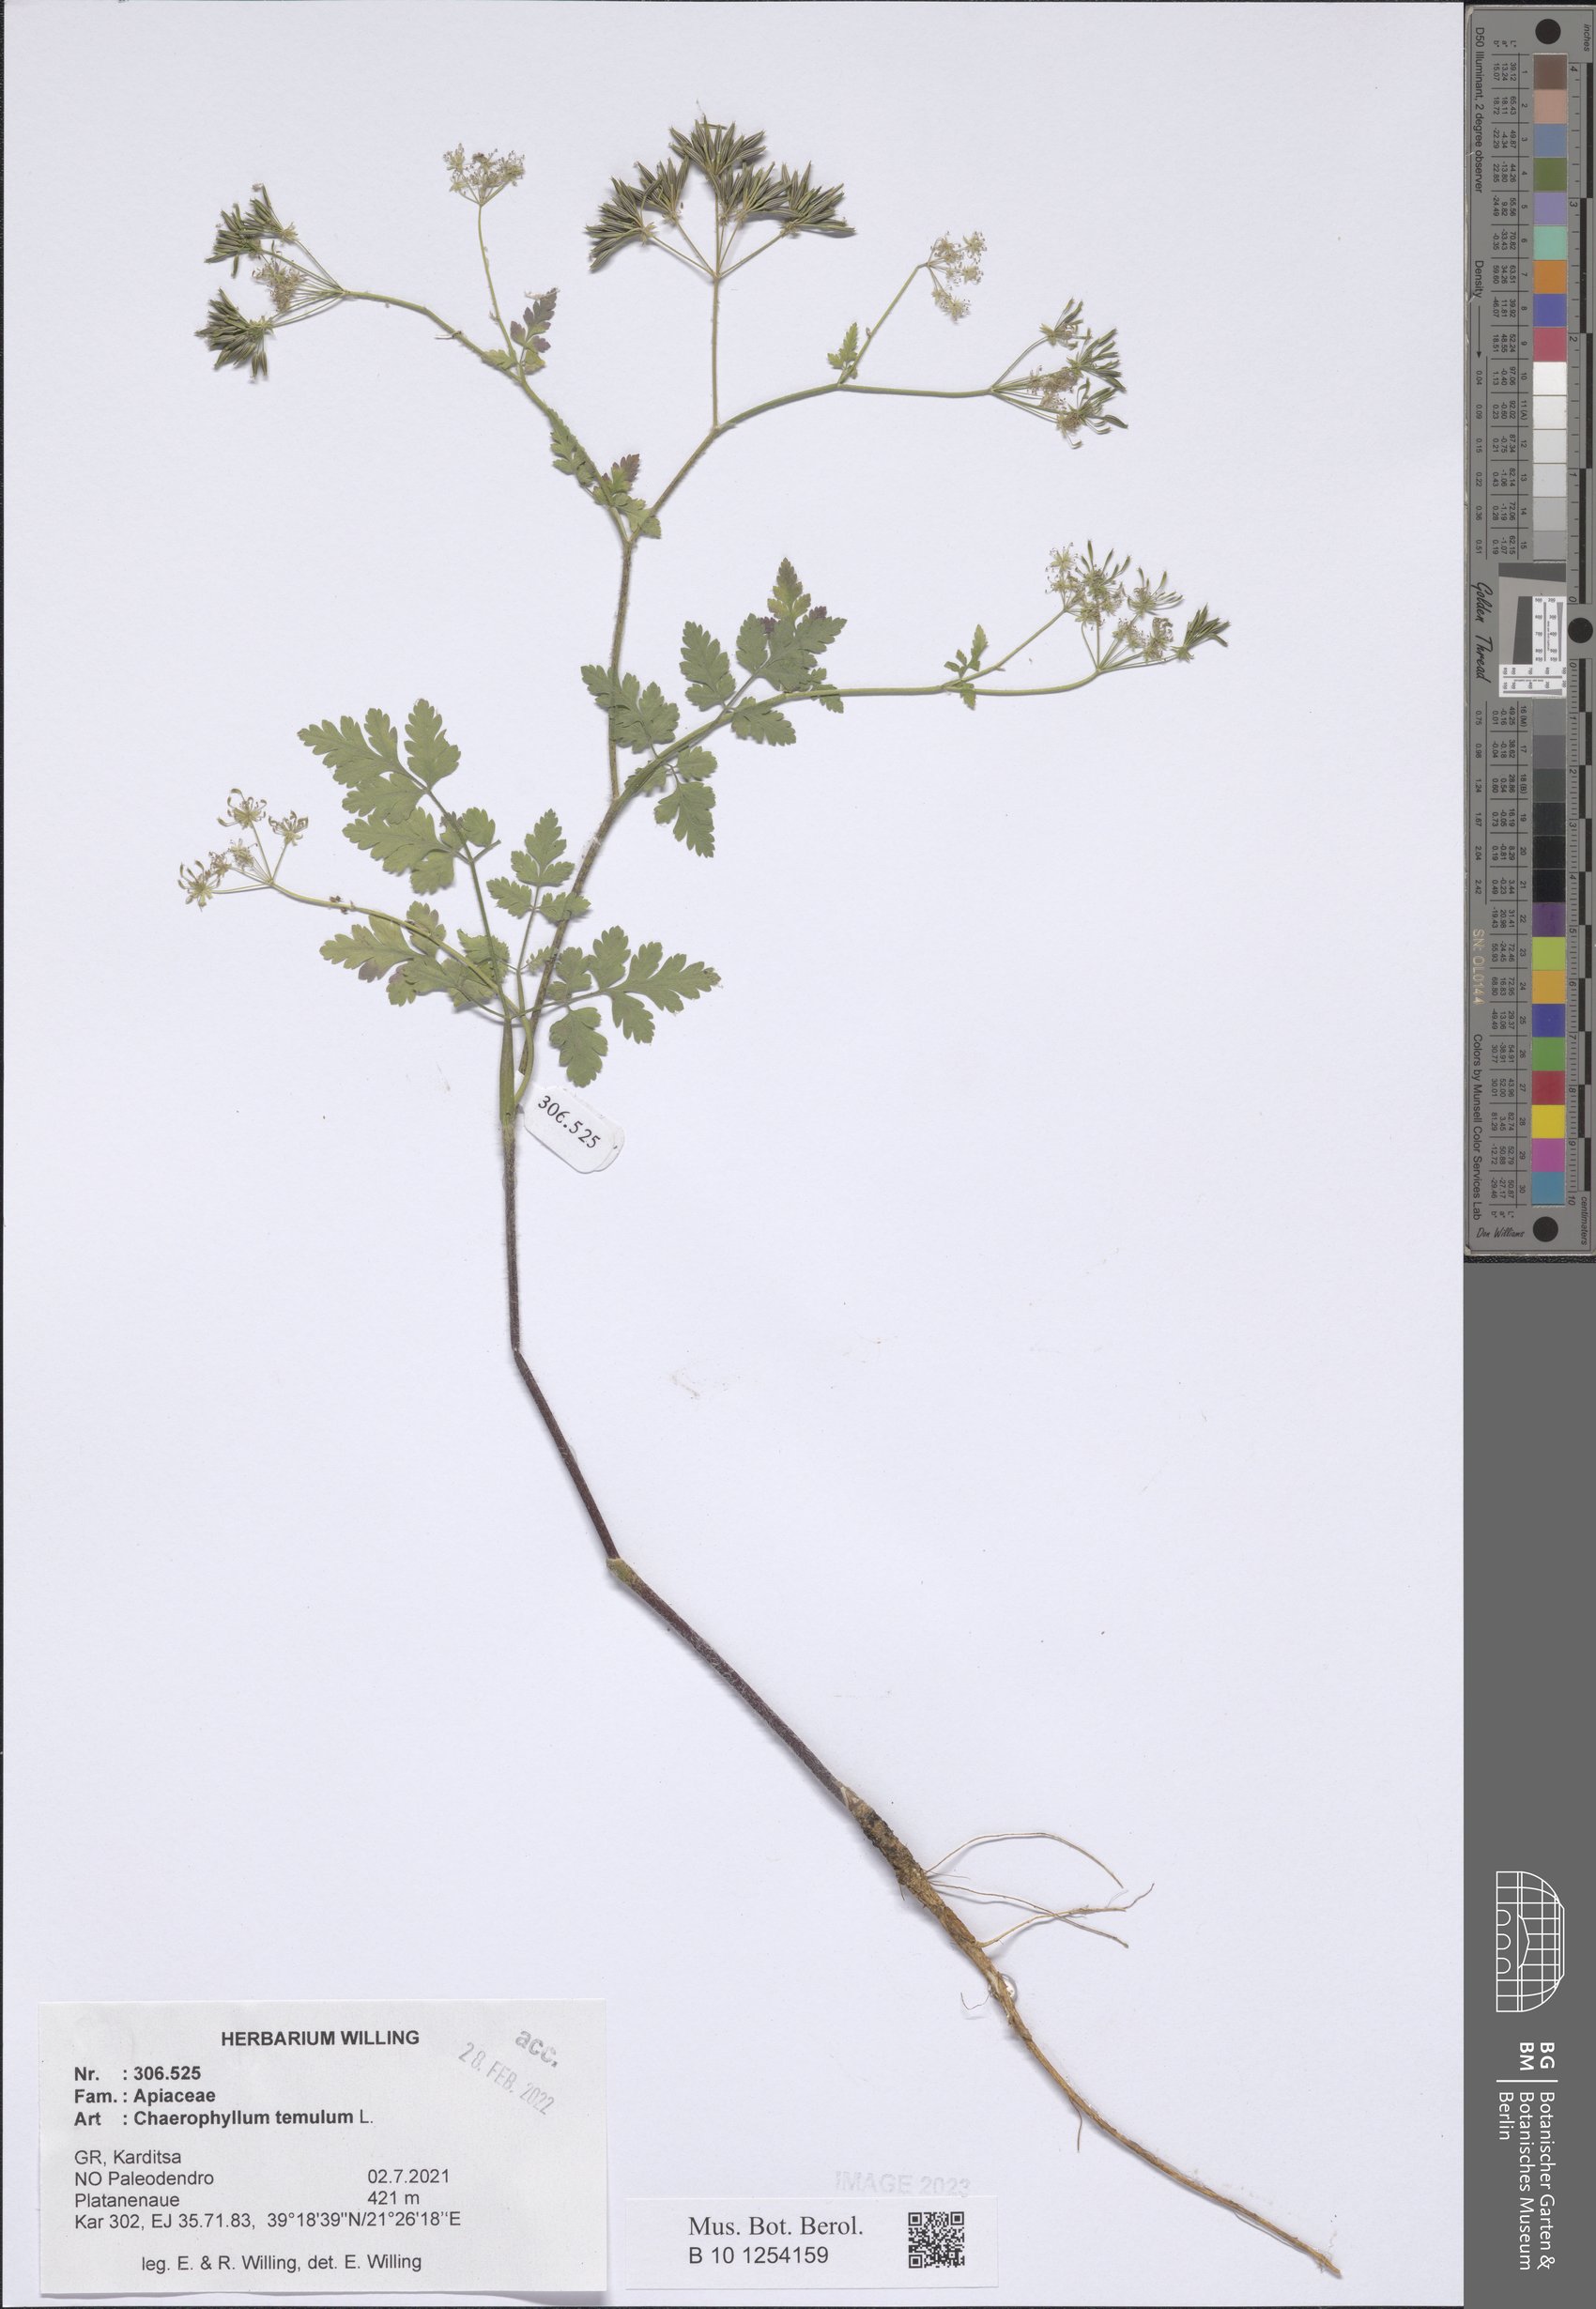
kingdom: Plantae
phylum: Tracheophyta
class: Magnoliopsida
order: Apiales
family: Apiaceae
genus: Chaerophyllum
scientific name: Chaerophyllum temulum
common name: Rough chervil
